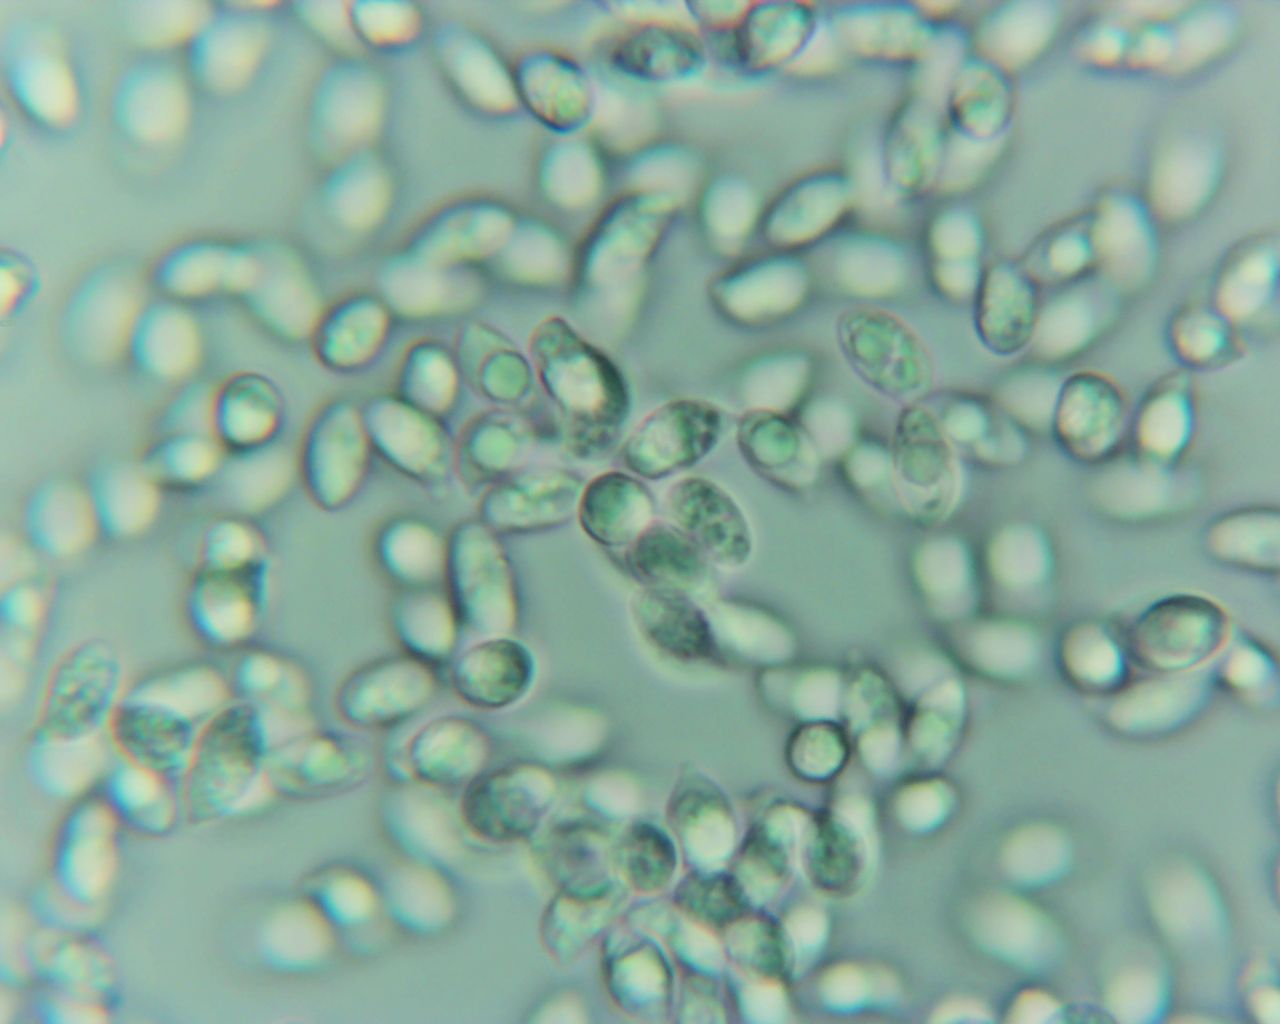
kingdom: Fungi
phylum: Basidiomycota
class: Agaricomycetes
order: Agaricales
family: Hygrophoraceae
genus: Ampulloclitocybe
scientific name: Ampulloclitocybe clavipes
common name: køllefod
